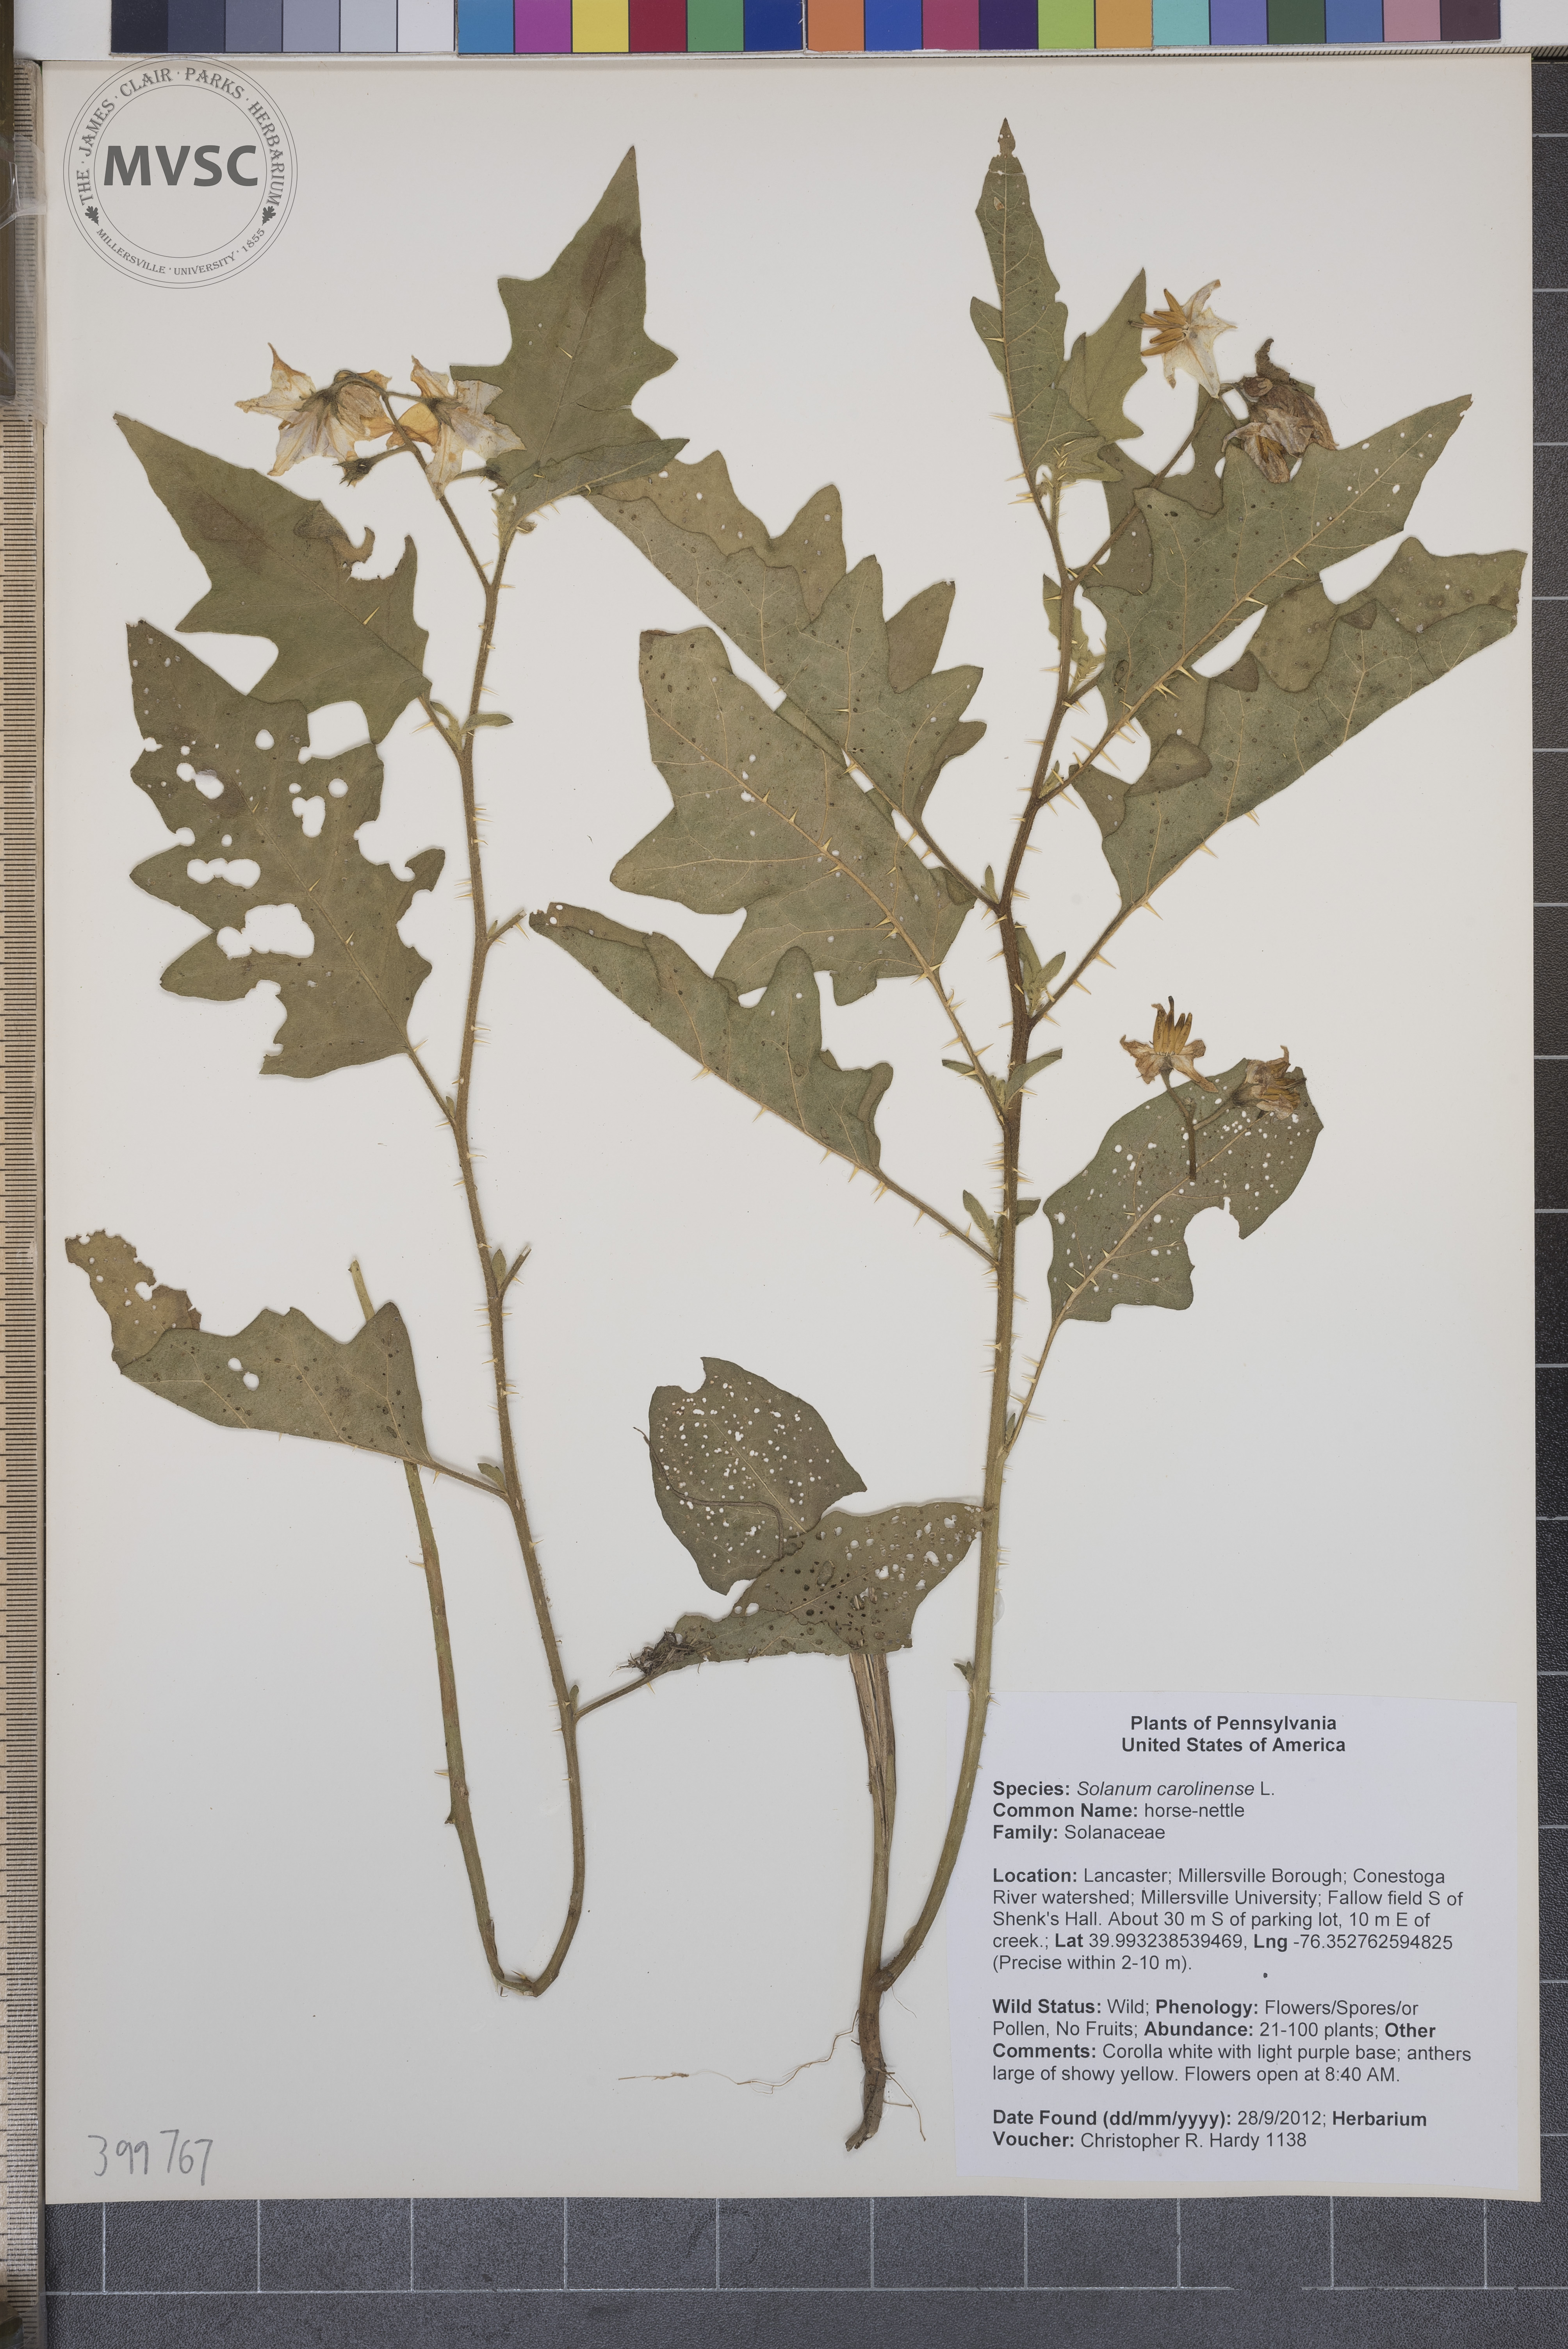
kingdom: Plantae
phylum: Tracheophyta
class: Magnoliopsida
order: Solanales
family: Solanaceae
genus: Solanum
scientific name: Solanum carolinense
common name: horse-nettle
